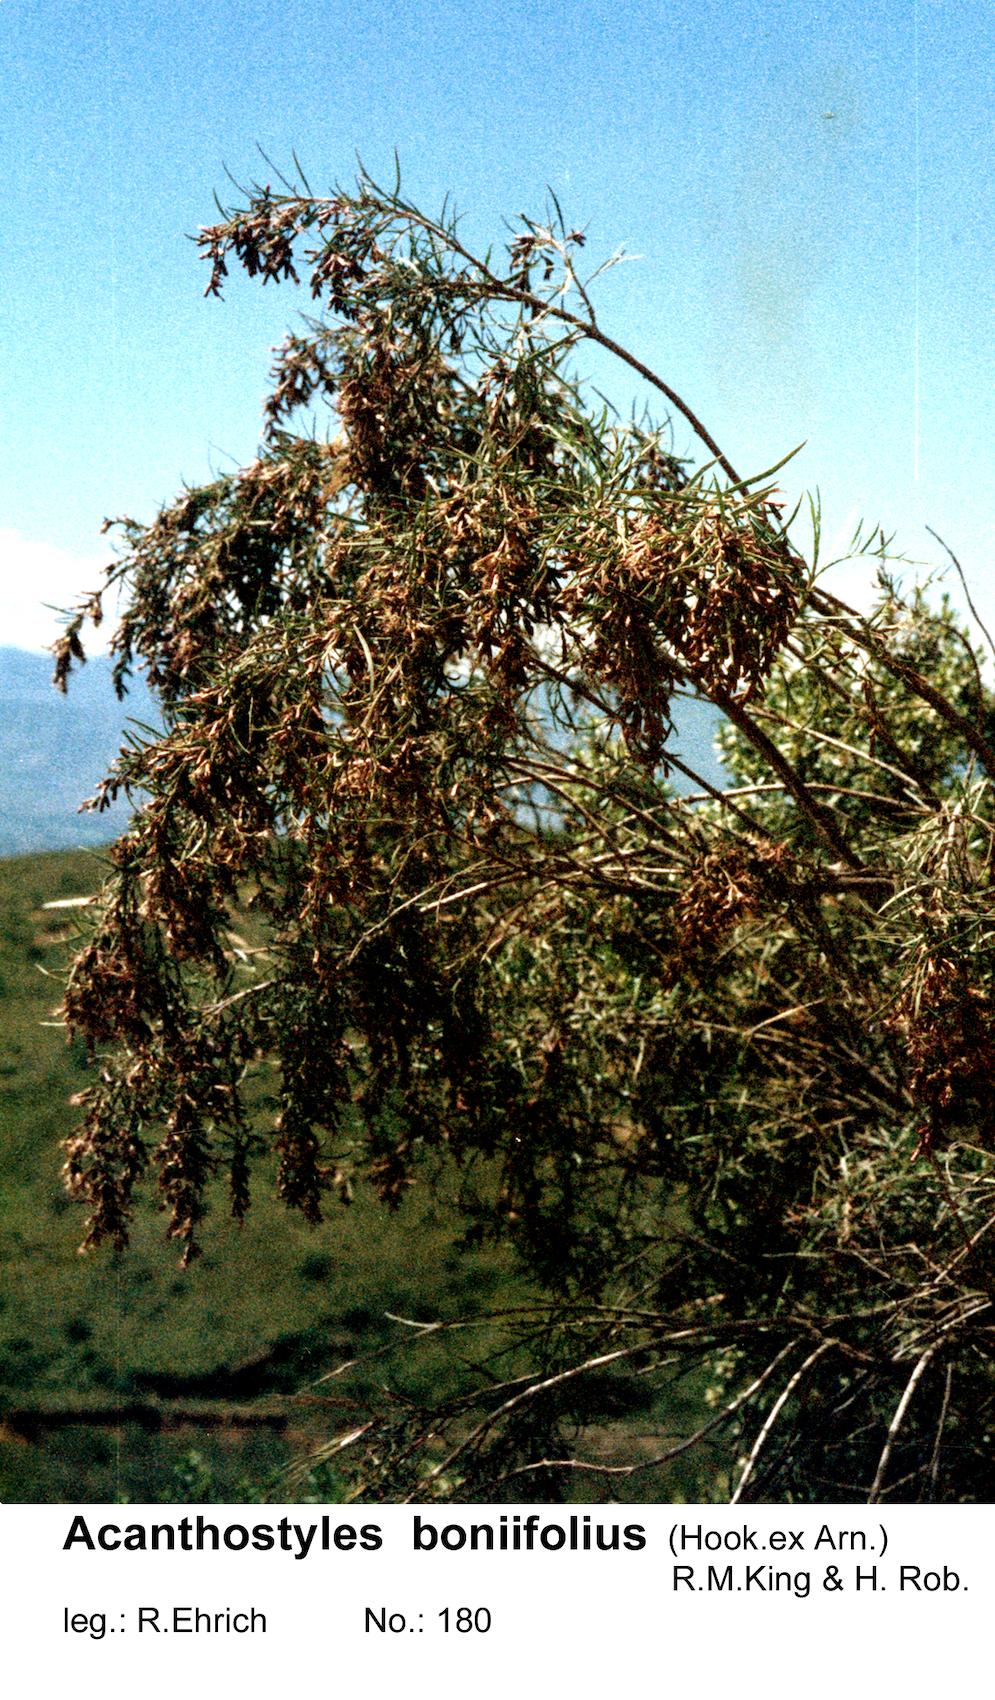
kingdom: Plantae
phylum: Tracheophyta
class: Magnoliopsida
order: Asterales
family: Asteraceae
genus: Acanthostyles
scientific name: Acanthostyles buniifolius
